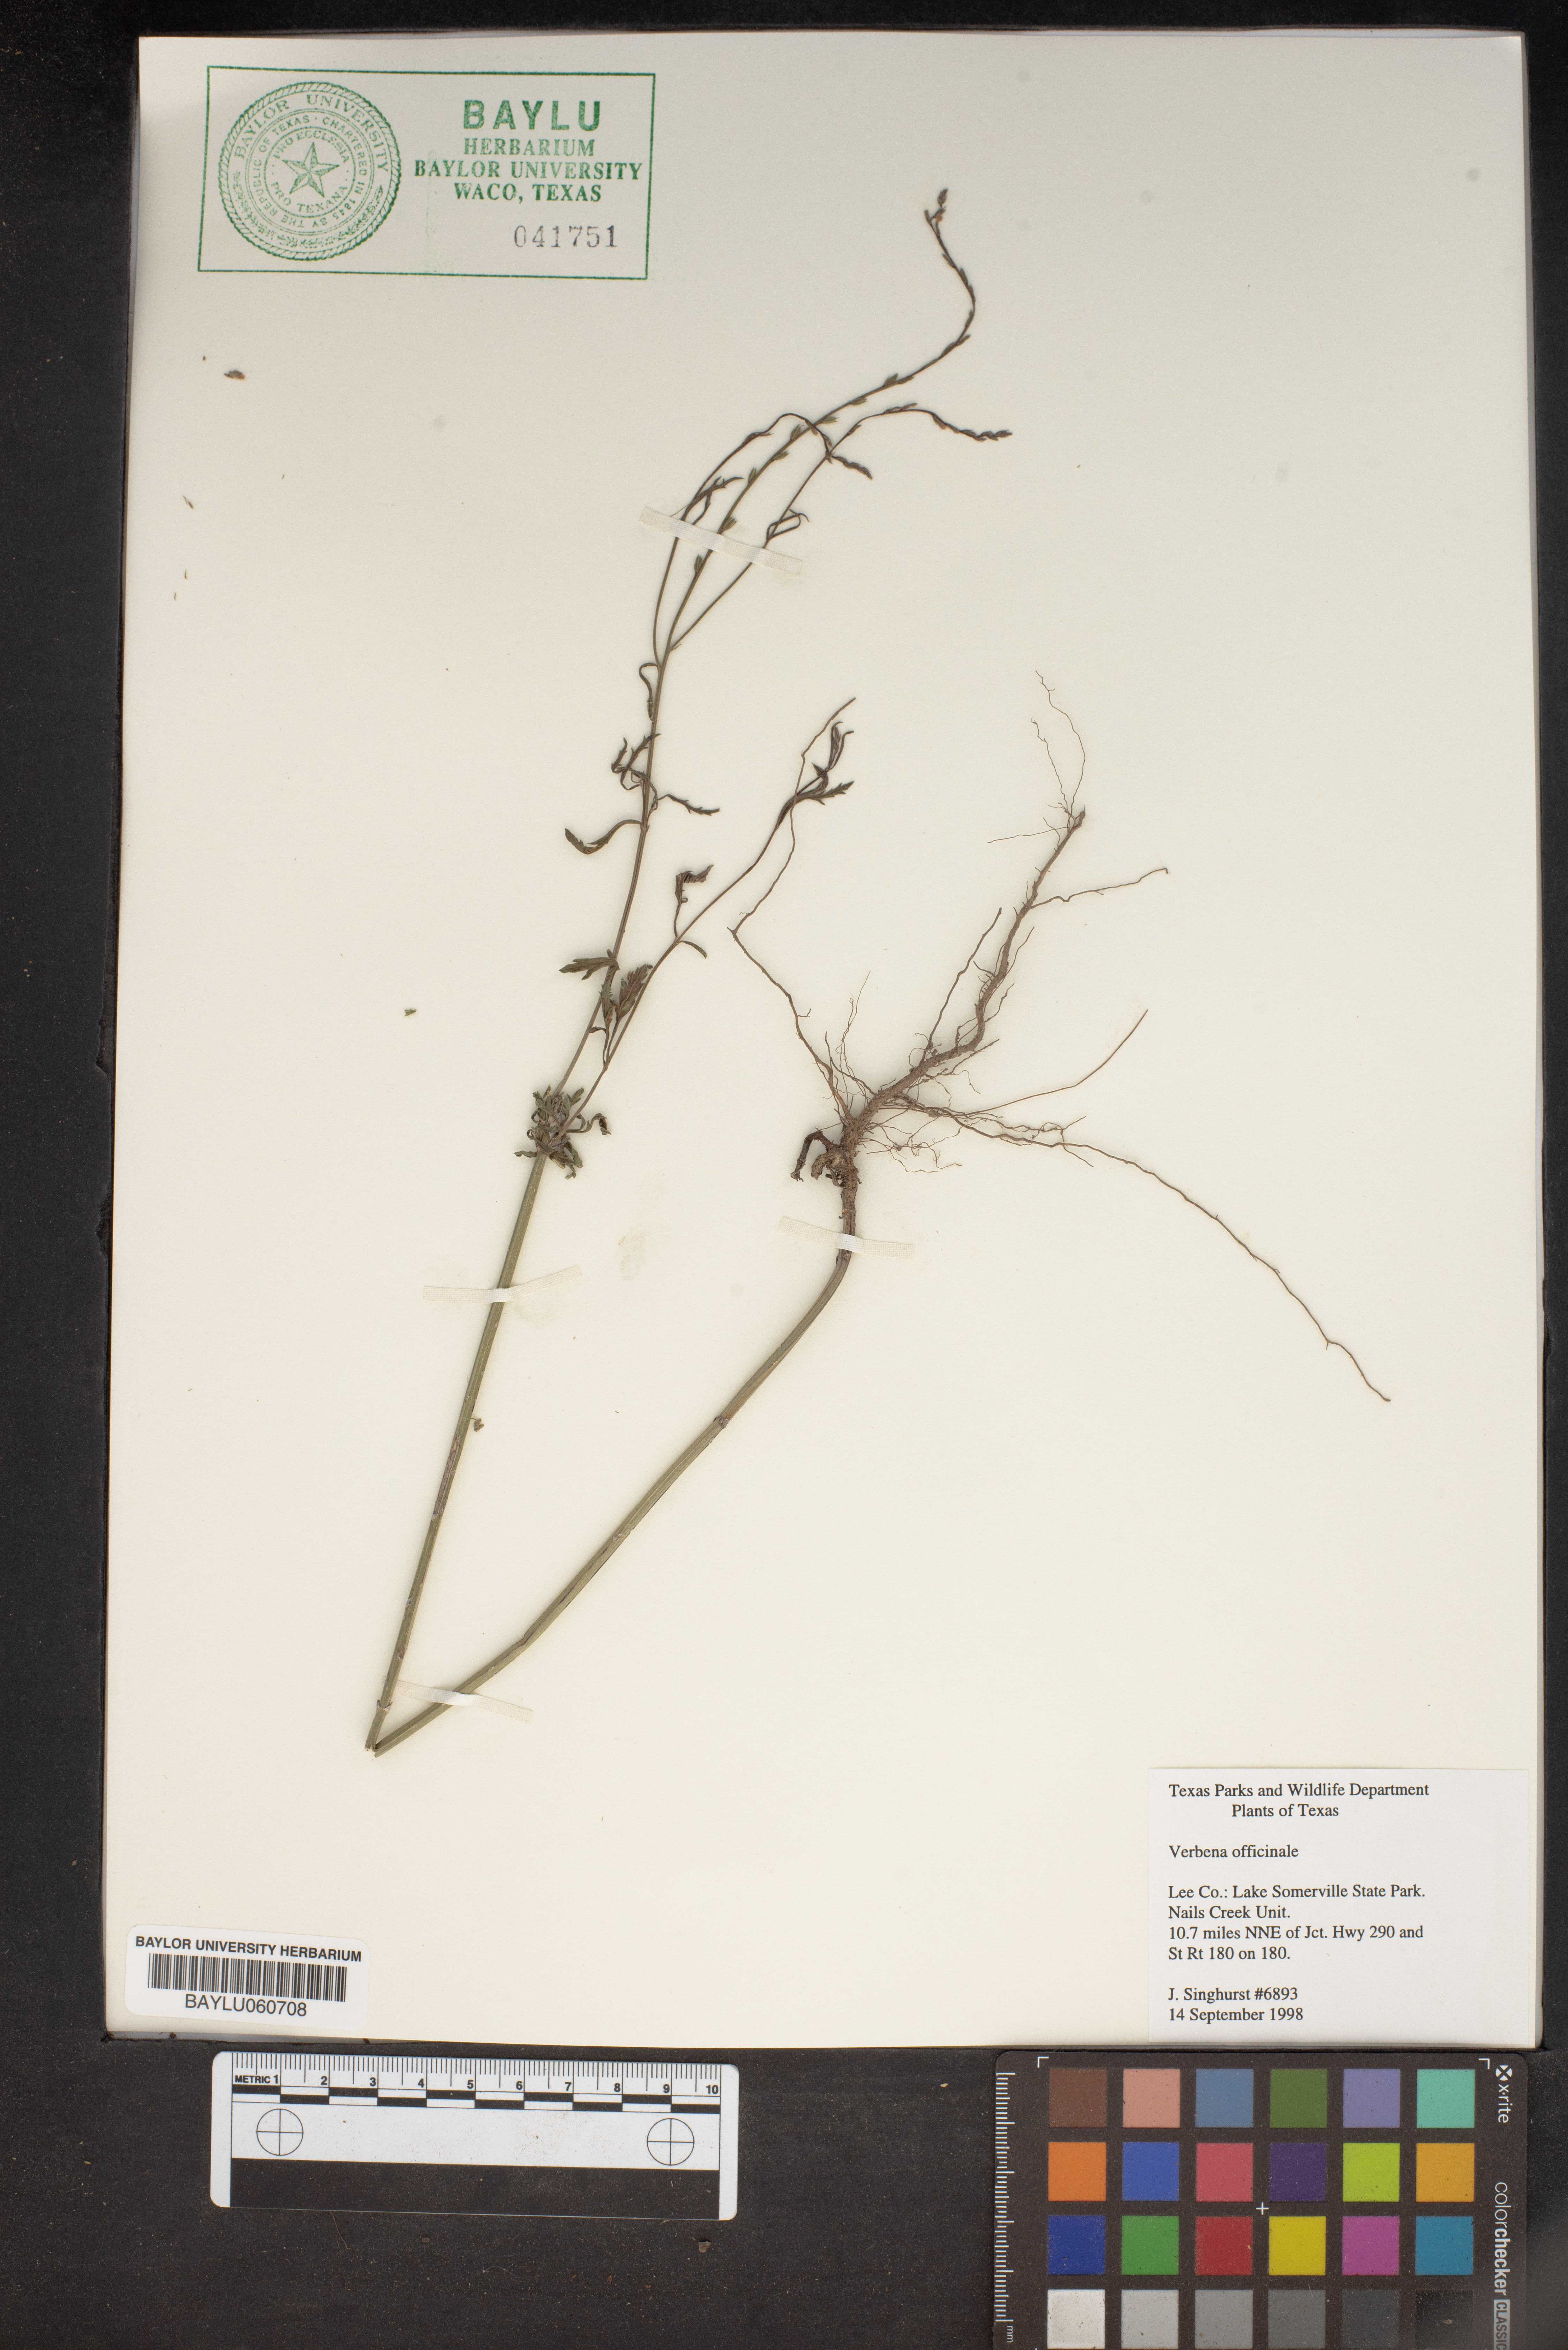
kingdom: Plantae
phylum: Tracheophyta
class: Magnoliopsida
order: Lamiales
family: Verbenaceae
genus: Verbena
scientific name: Verbena officinalis
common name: Vervain
